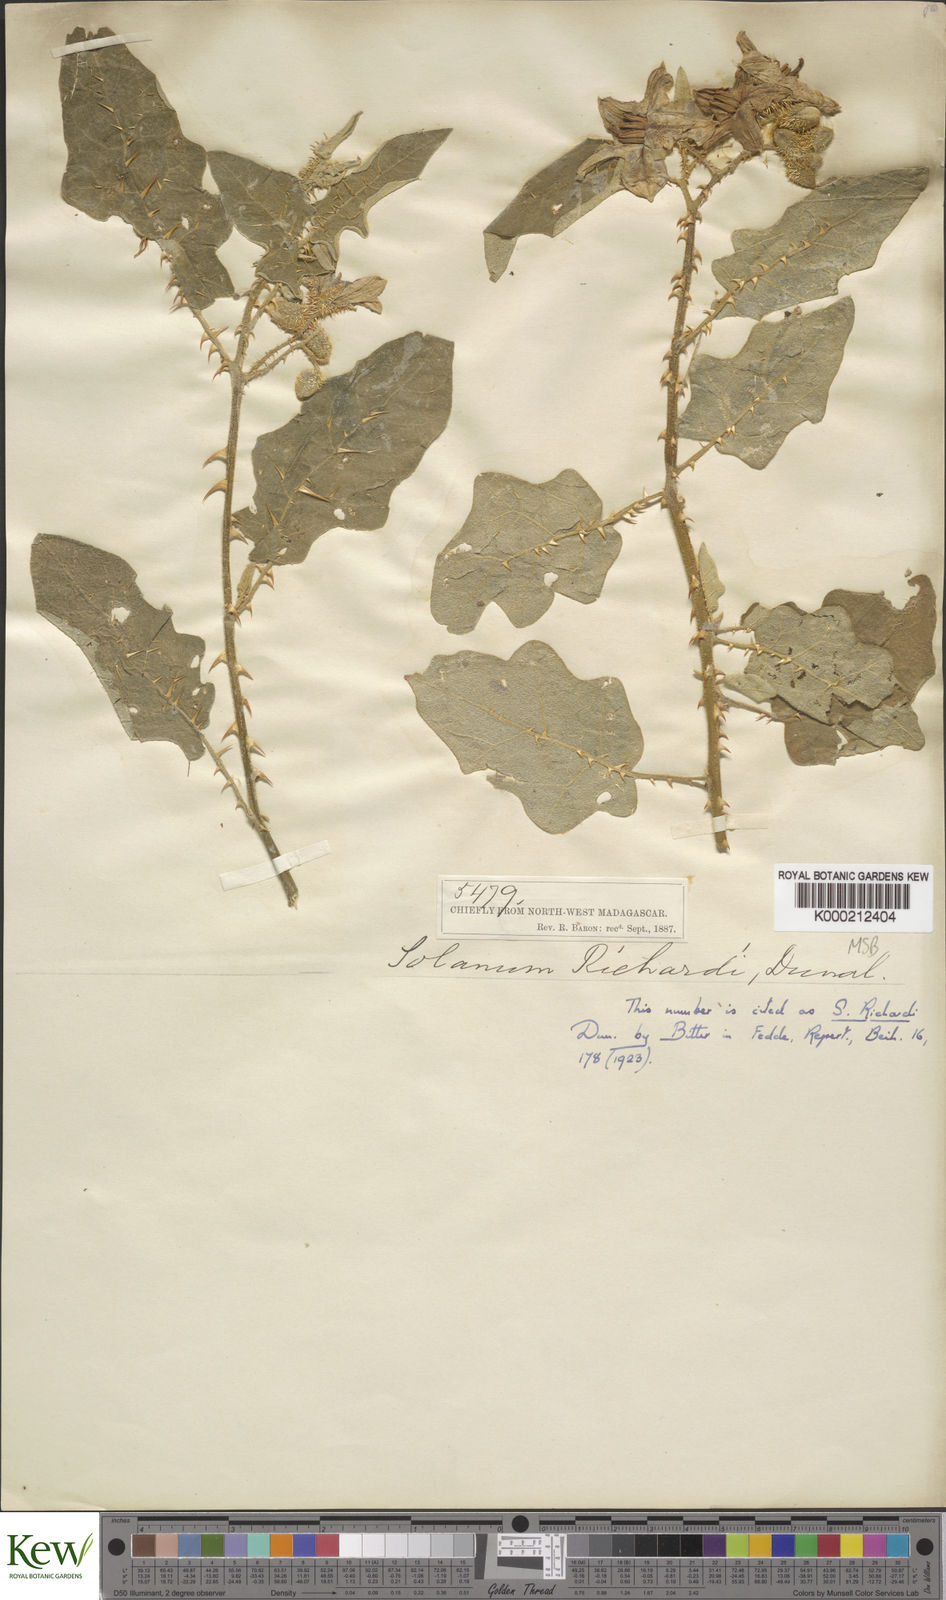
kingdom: Plantae
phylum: Tracheophyta
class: Magnoliopsida
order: Solanales
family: Solanaceae
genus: Solanum
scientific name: Solanum richardii
